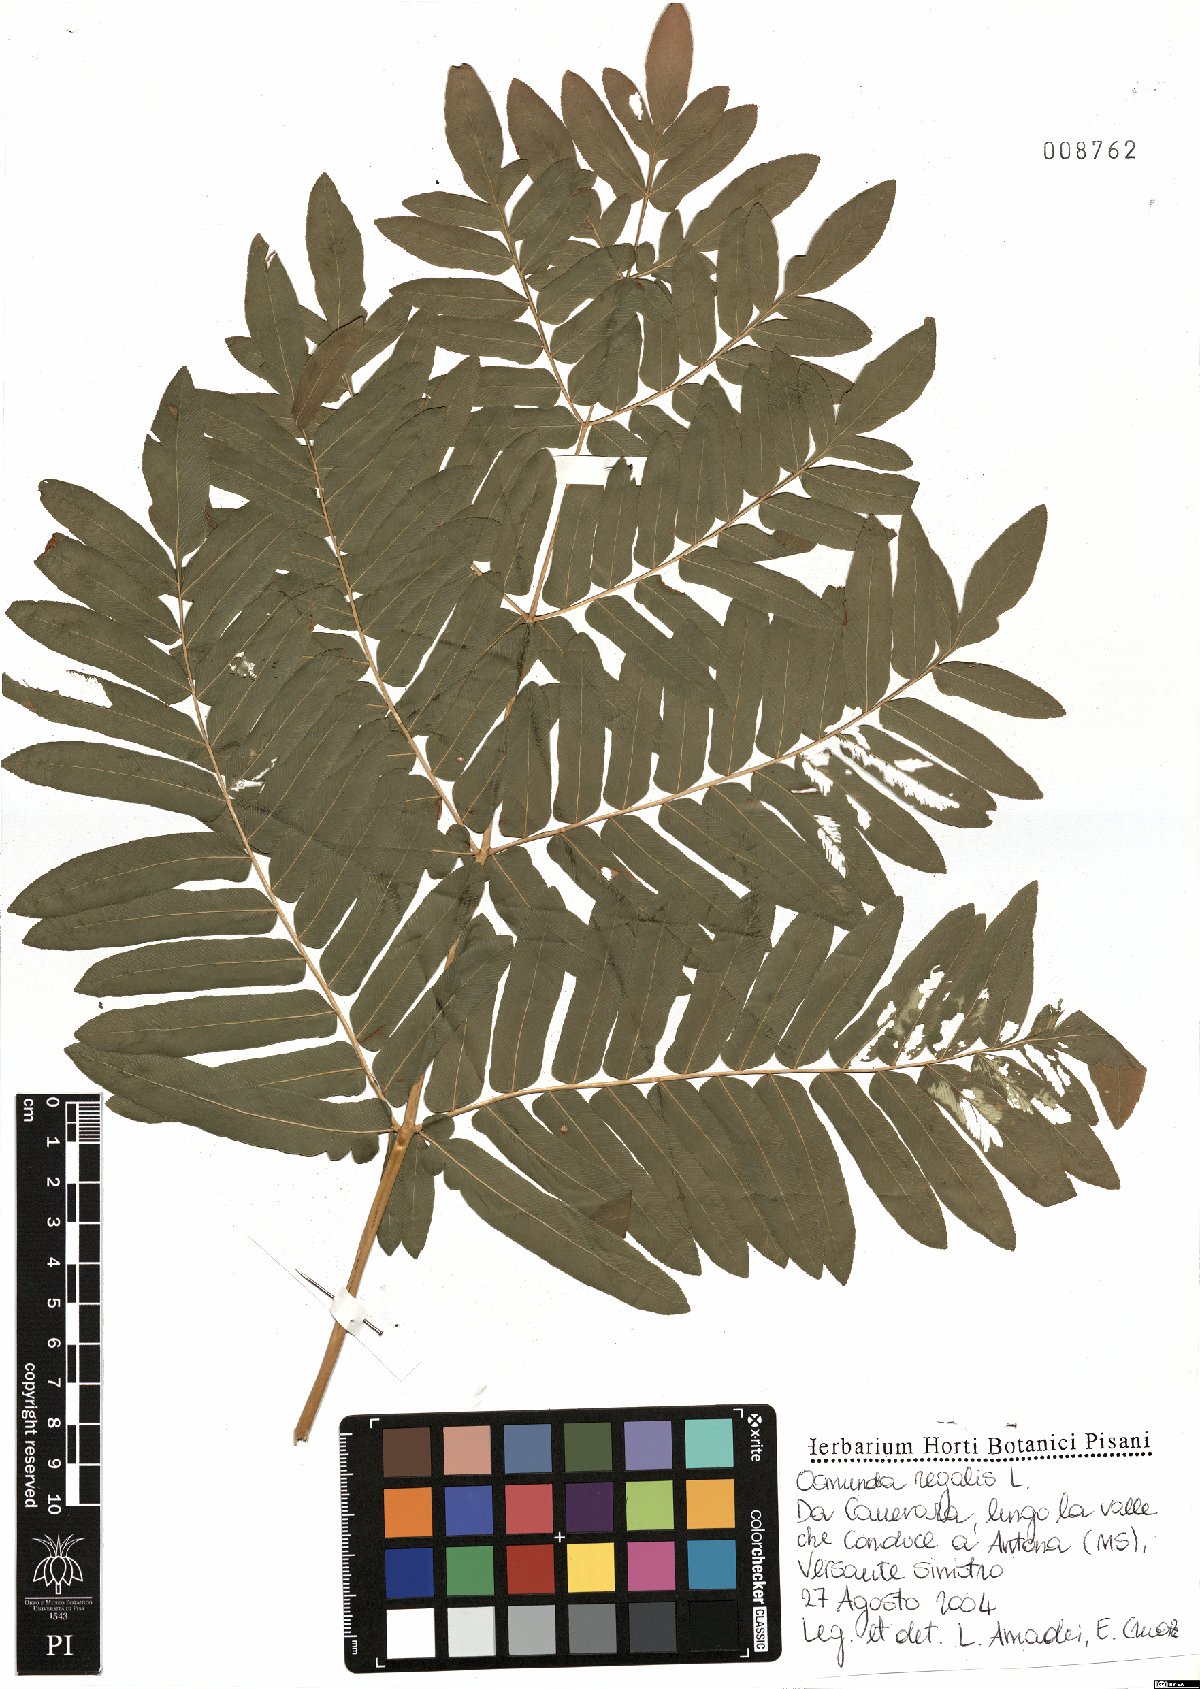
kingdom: Plantae
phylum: Tracheophyta
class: Polypodiopsida
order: Osmundales
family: Osmundaceae
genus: Osmunda
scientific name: Osmunda regalis
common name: Royal fern
